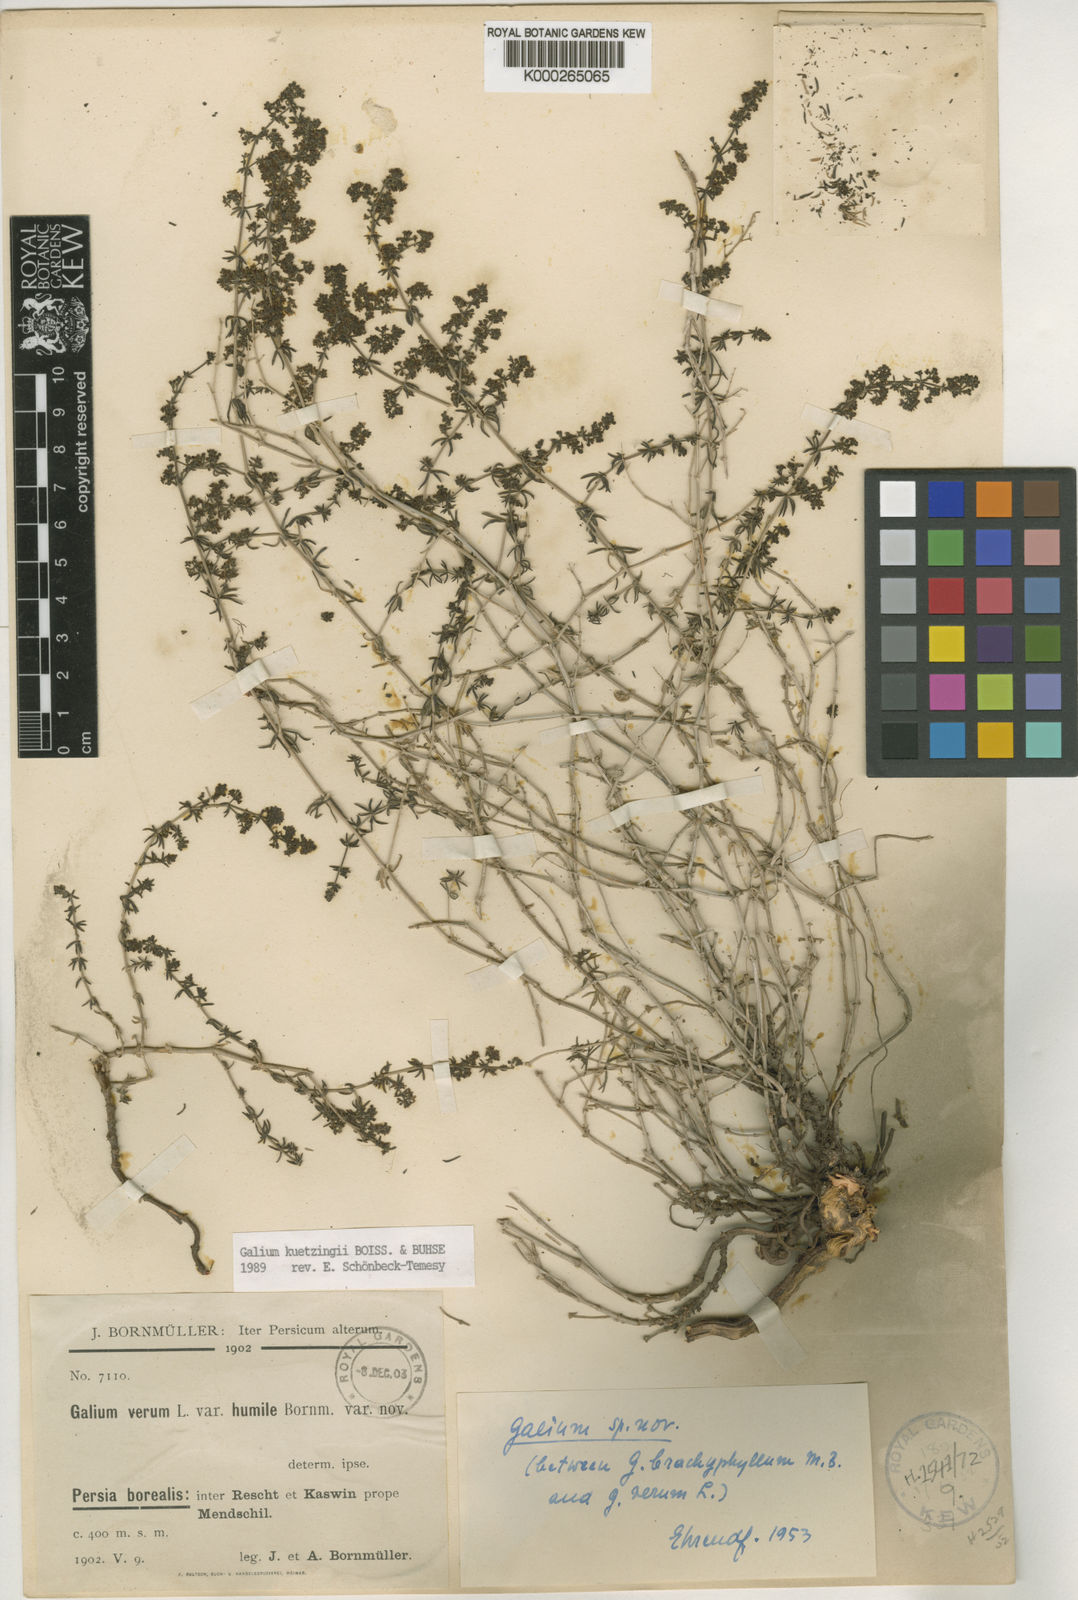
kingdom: Plantae
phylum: Tracheophyta
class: Magnoliopsida
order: Gentianales
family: Rubiaceae
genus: Galium
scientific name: Galium kuetzingii
